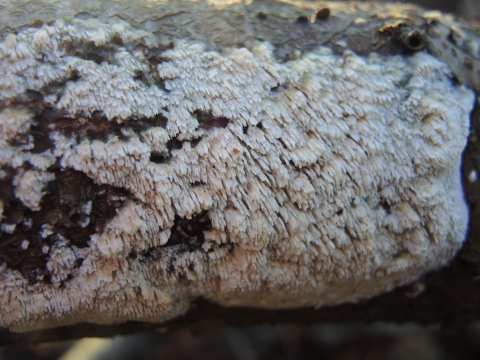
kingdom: Fungi
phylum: Basidiomycota
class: Agaricomycetes
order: Hymenochaetales
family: Schizoporaceae
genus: Schizopora
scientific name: Schizopora paradoxa
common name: hvid tandsvamp
